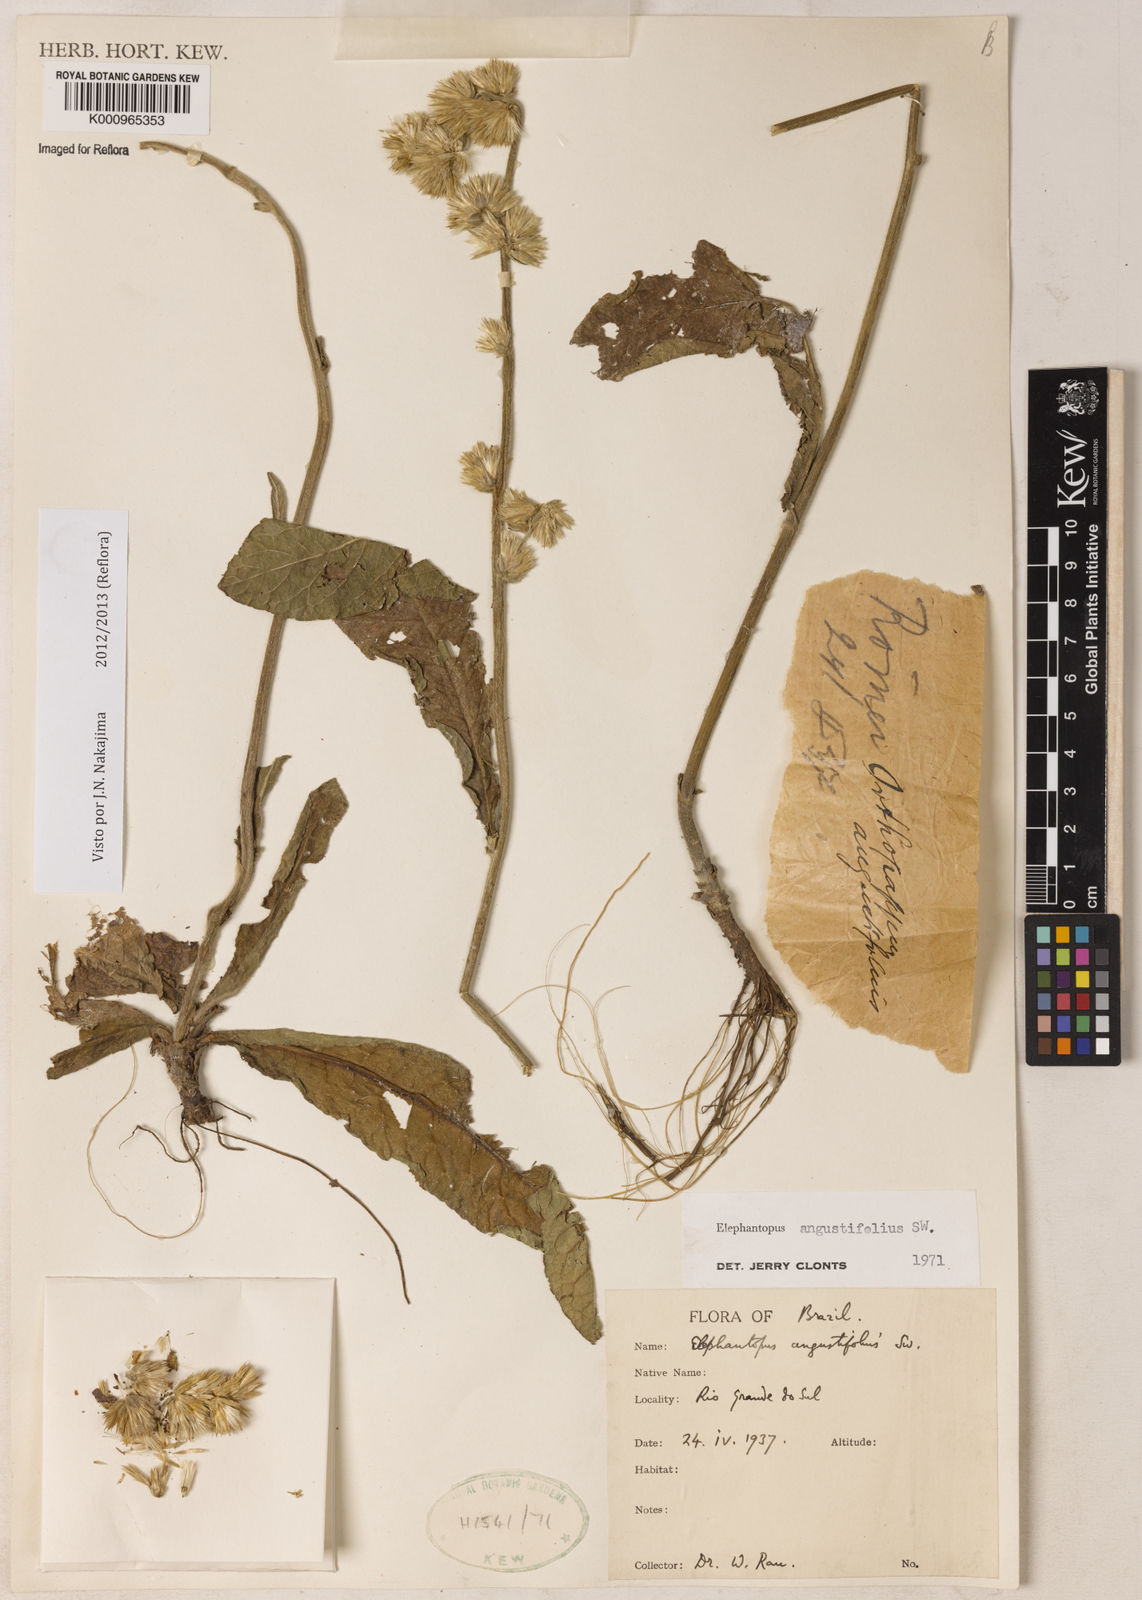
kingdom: Plantae
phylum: Tracheophyta
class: Magnoliopsida
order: Asterales
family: Asteraceae
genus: Orthopappus
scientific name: Orthopappus angustifolius
